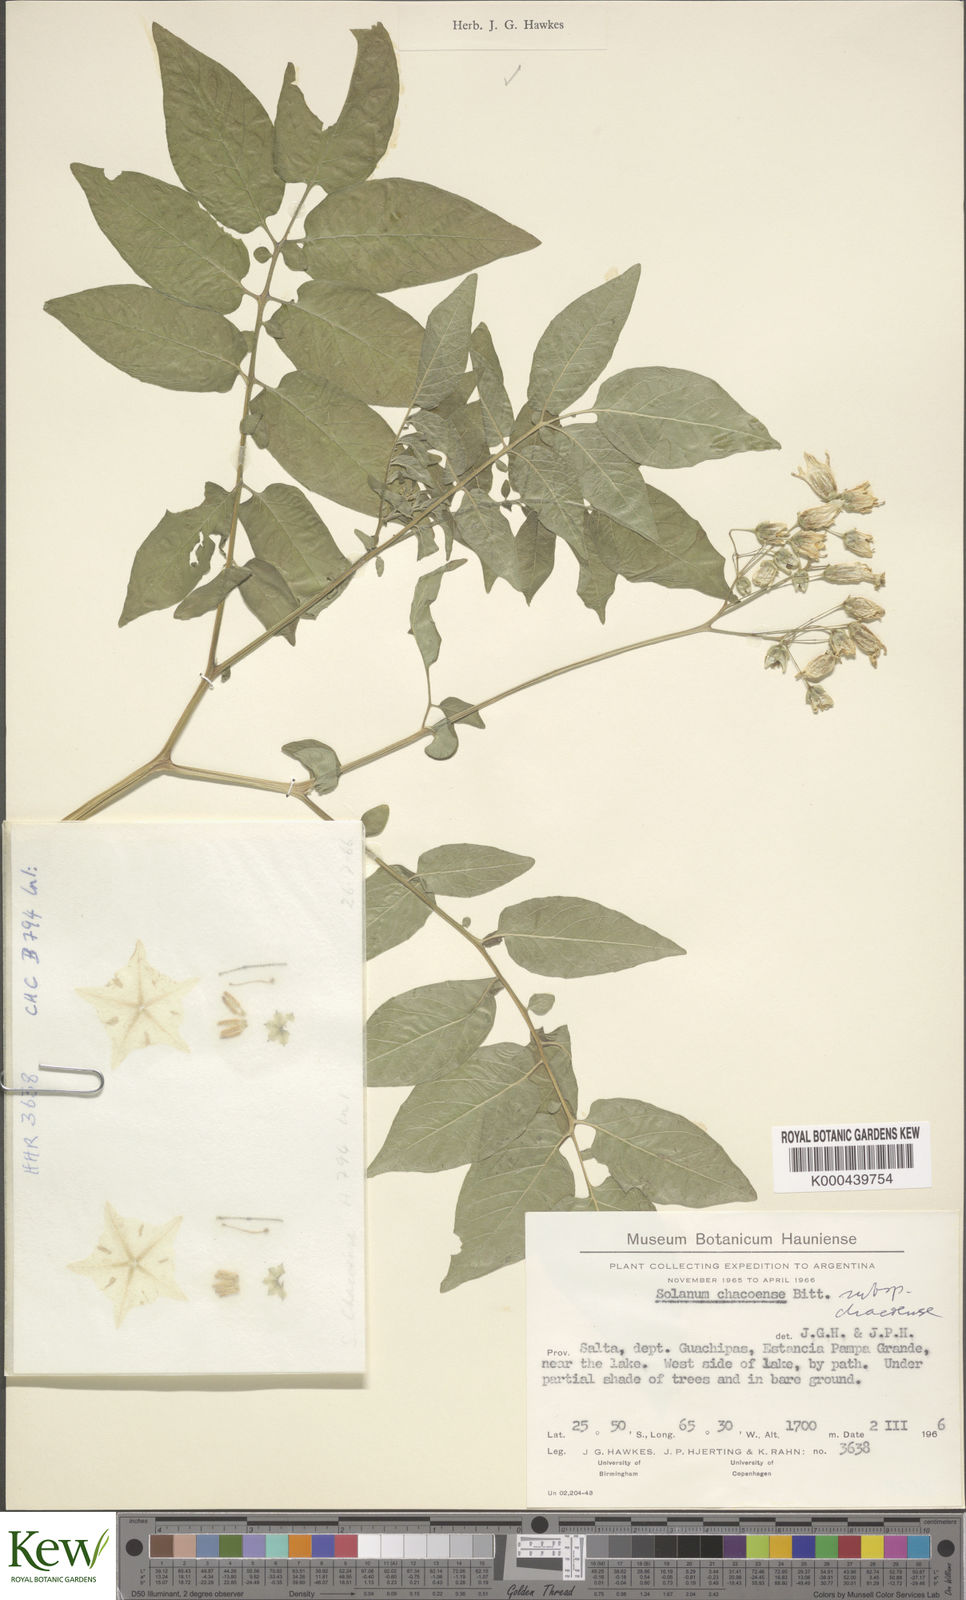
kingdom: Plantae
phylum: Tracheophyta
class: Magnoliopsida
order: Solanales
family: Solanaceae
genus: Solanum
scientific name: Solanum chacoense
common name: Chaco potato
